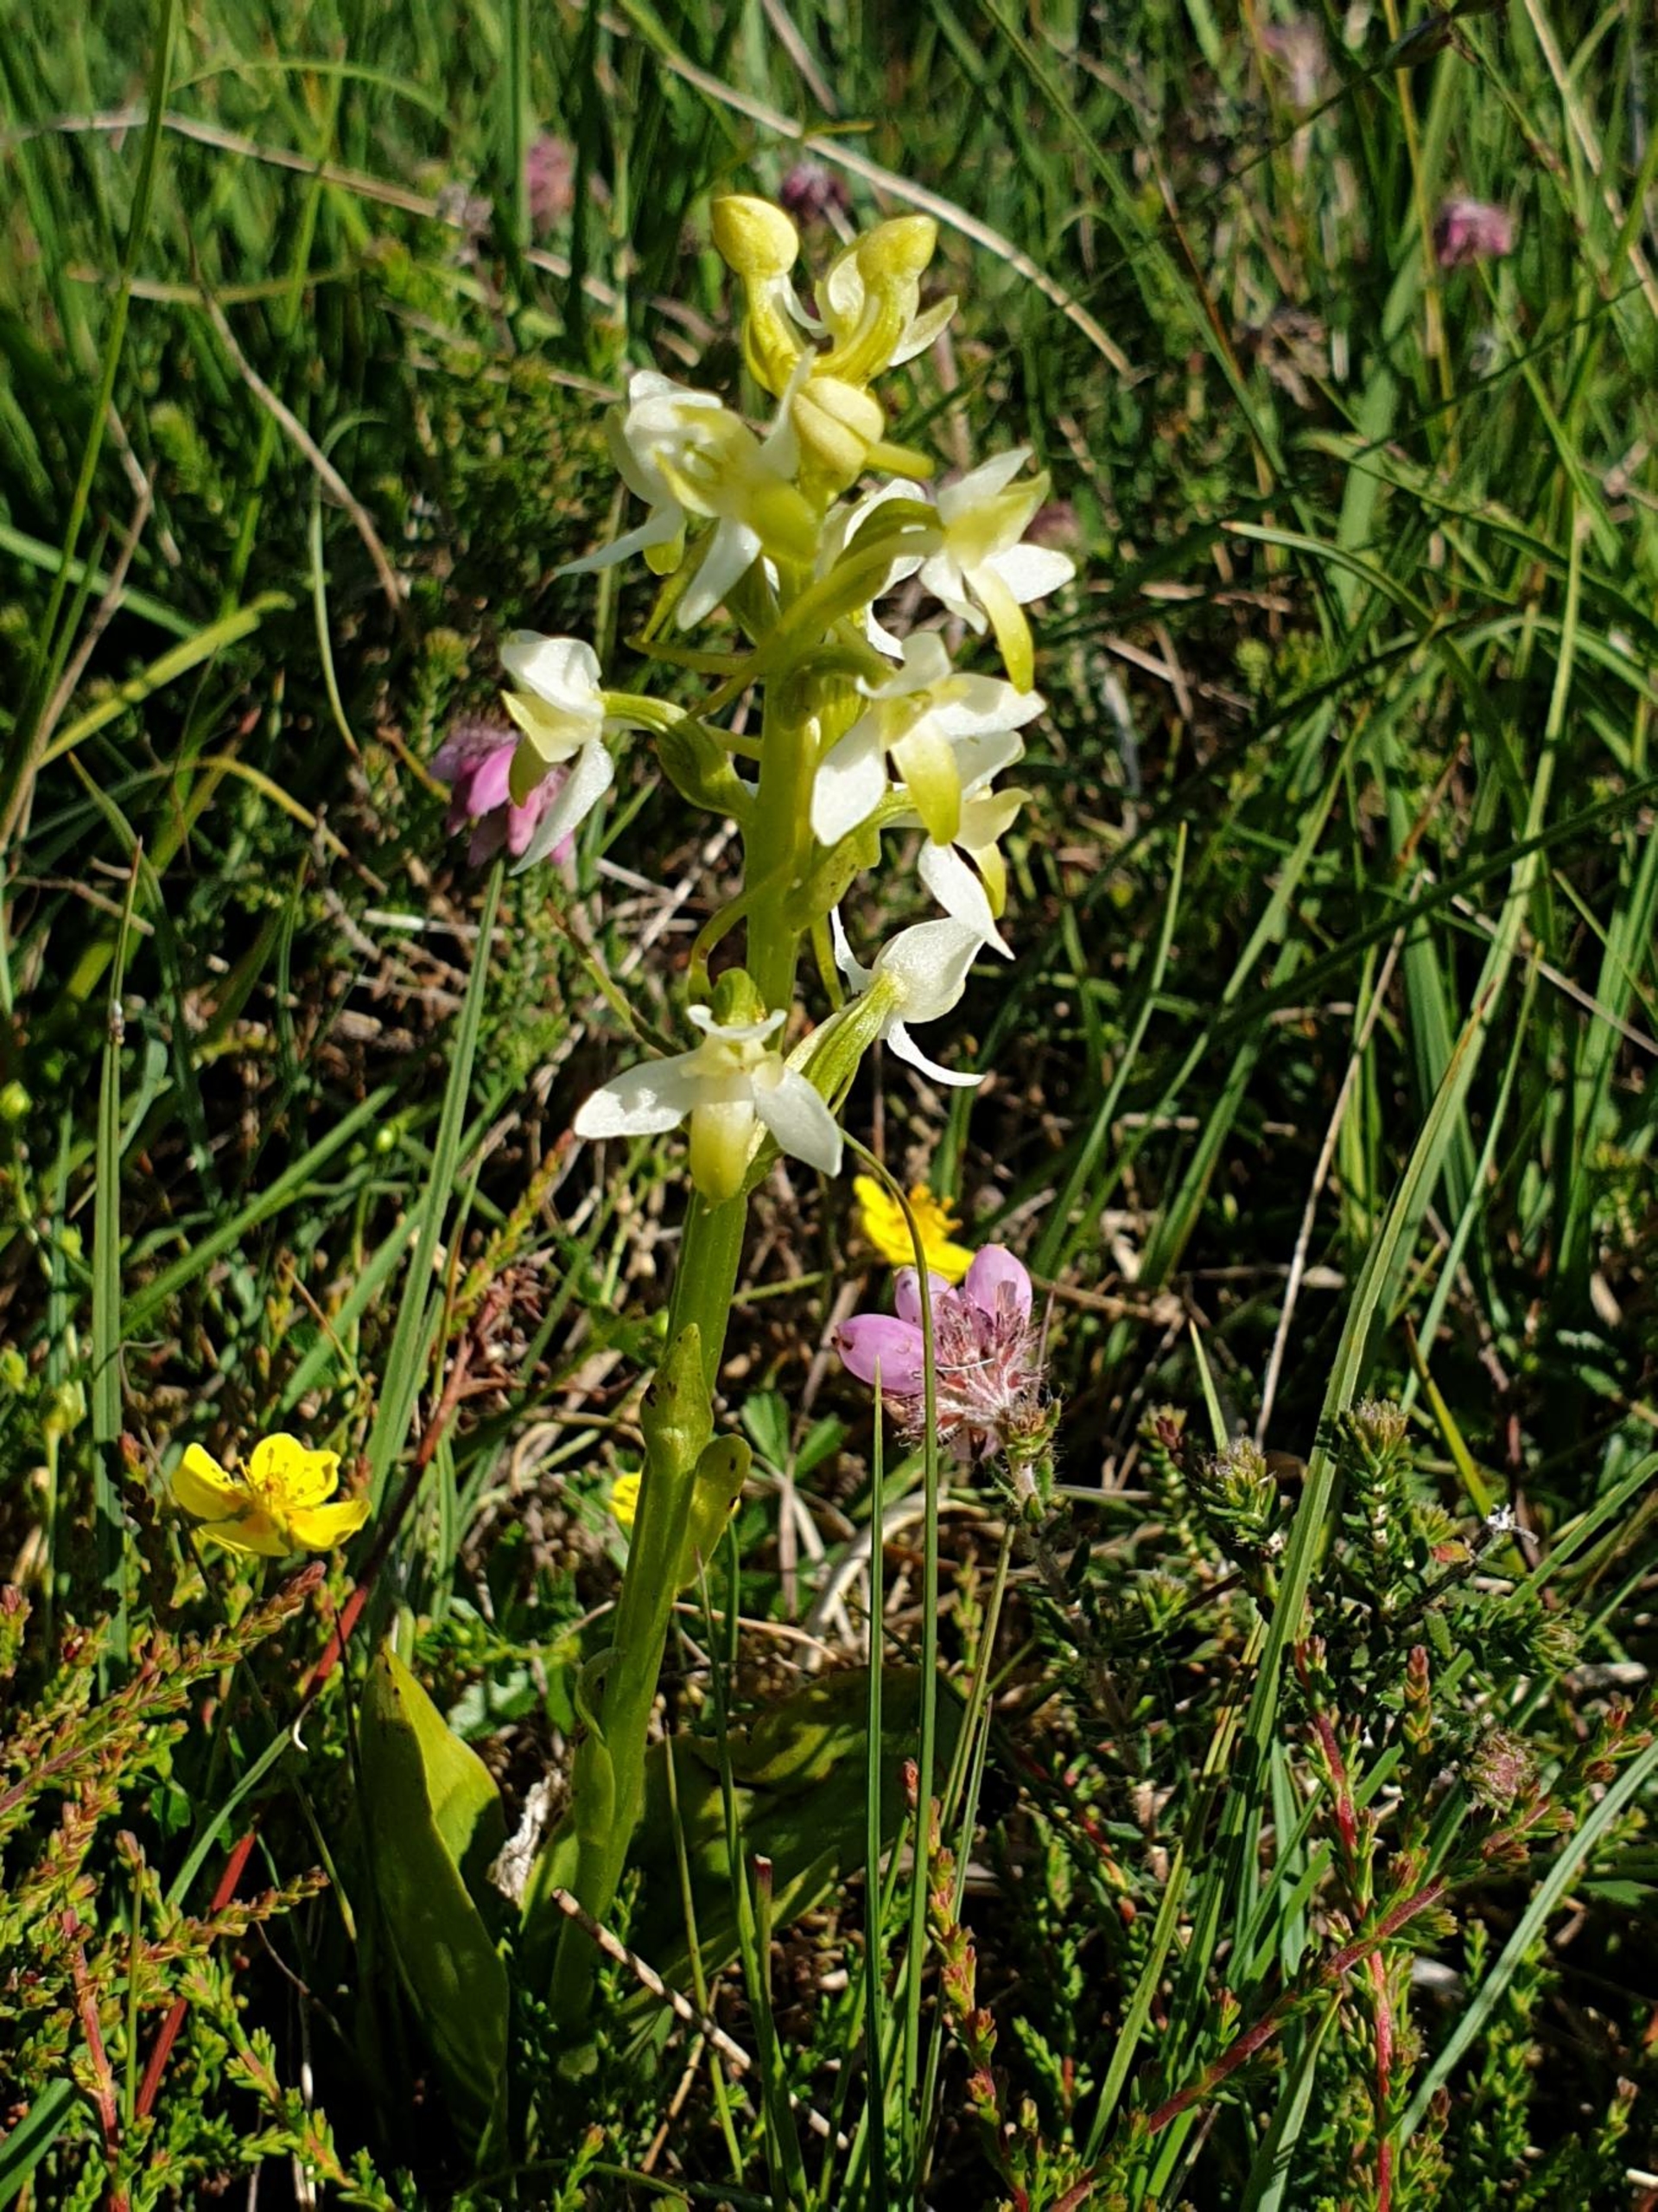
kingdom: Plantae
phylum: Tracheophyta
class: Liliopsida
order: Asparagales
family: Orchidaceae
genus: Platanthera
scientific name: Platanthera bifolia
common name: Bakke-gøgelilje
